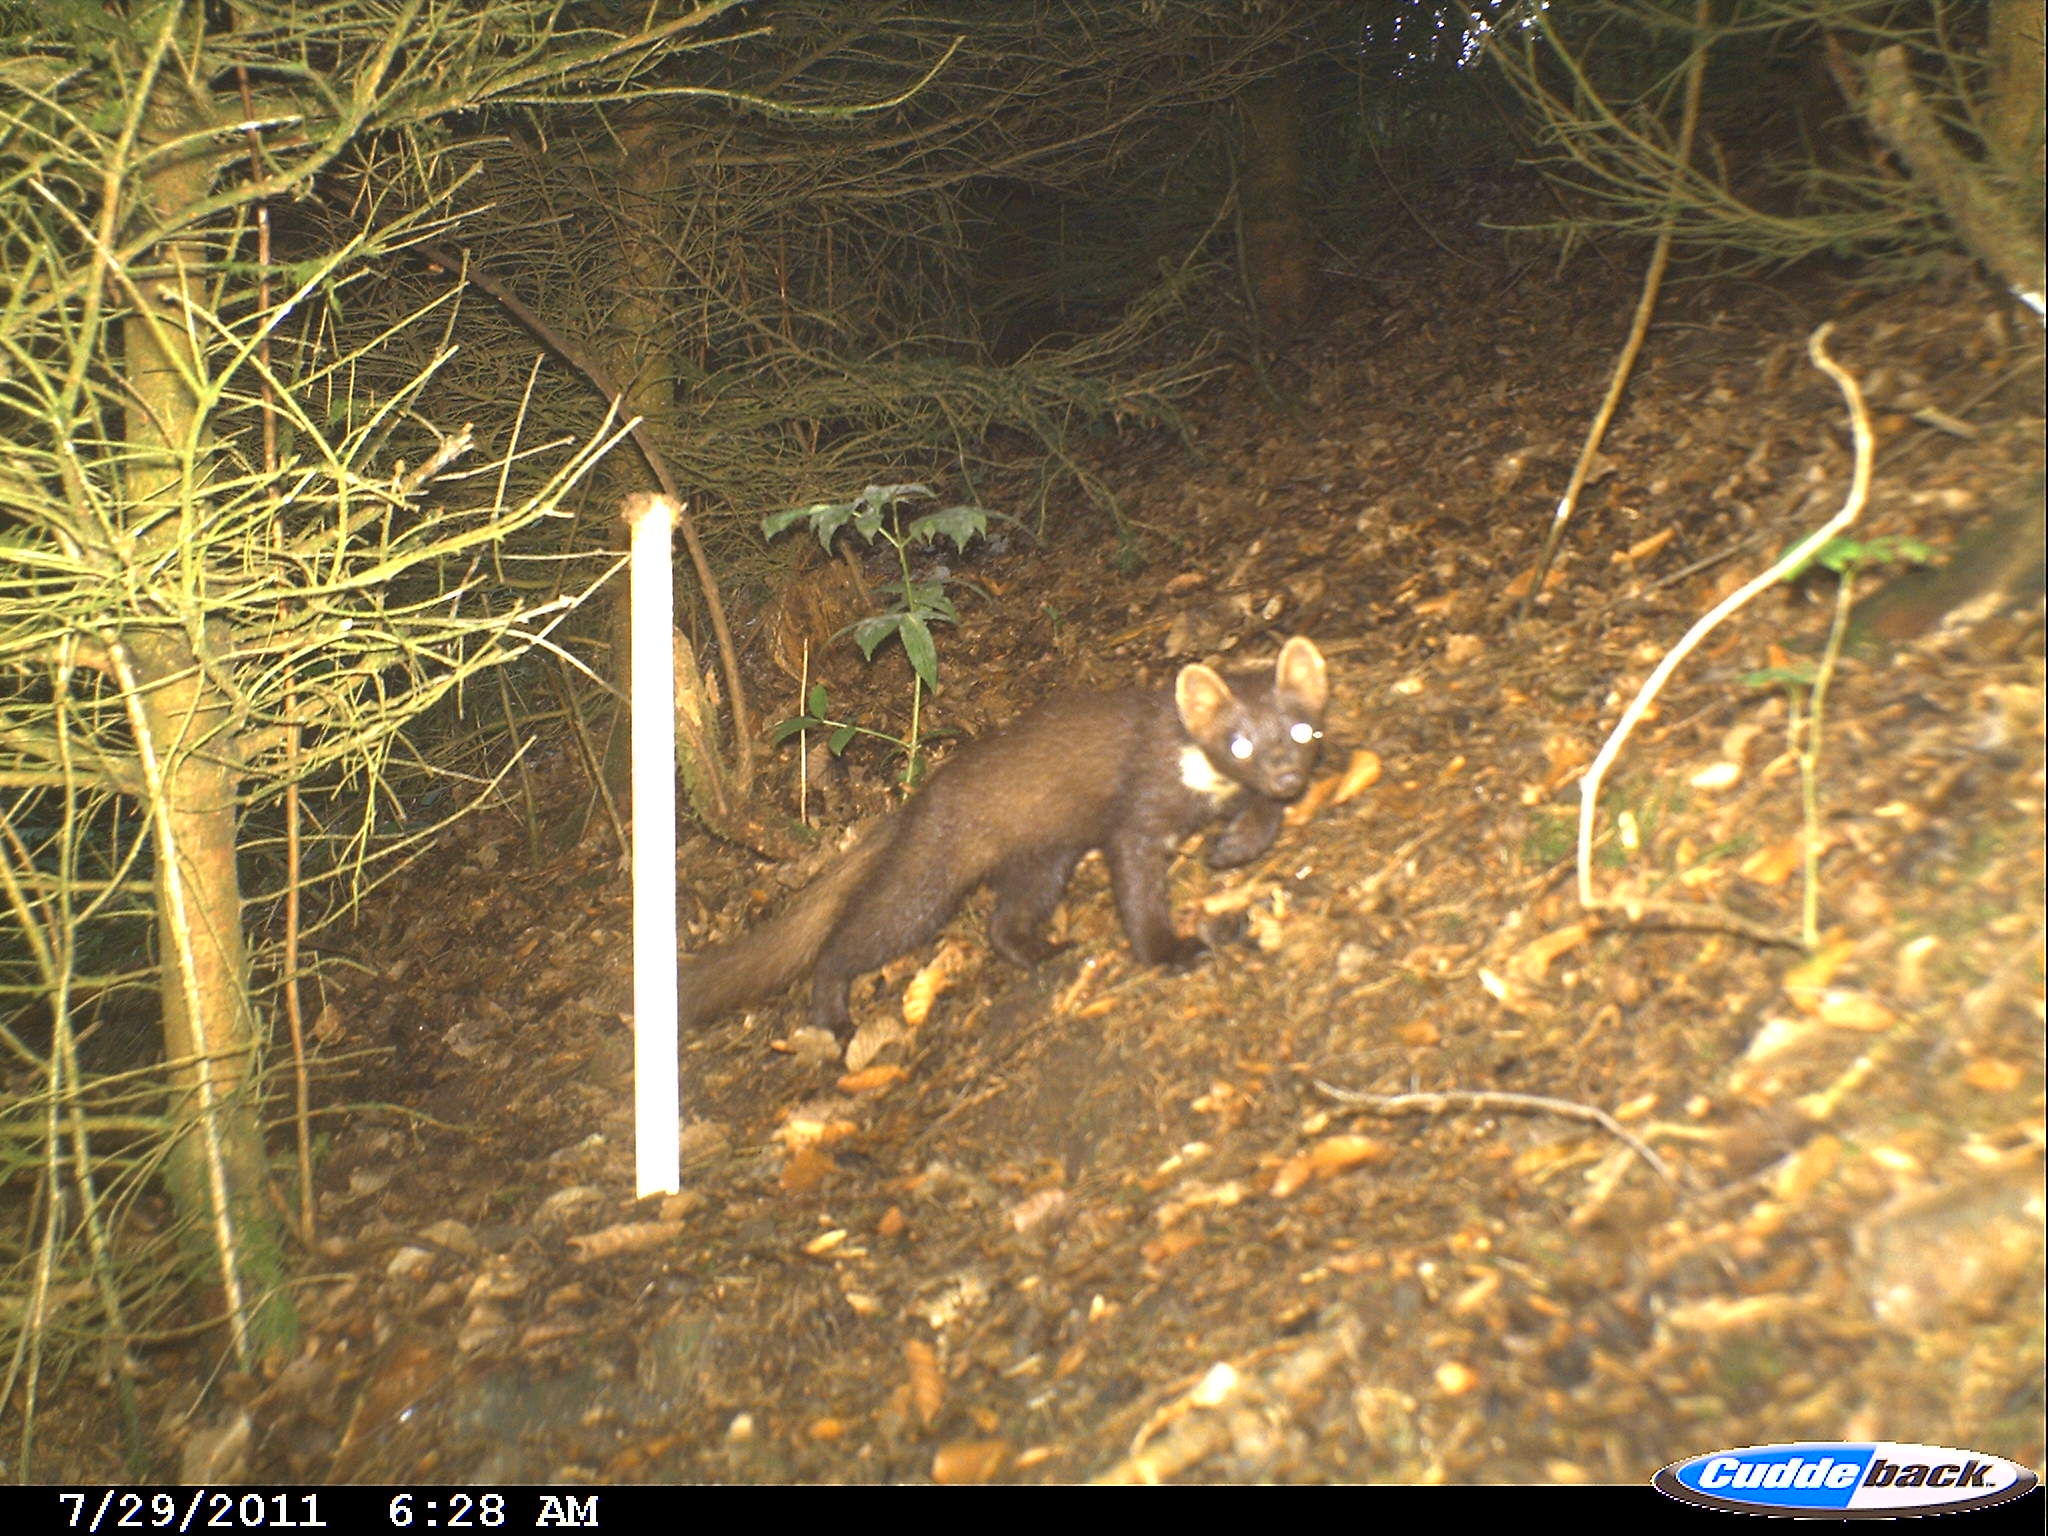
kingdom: Animalia
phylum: Chordata
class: Mammalia
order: Carnivora
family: Mustelidae
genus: Martes
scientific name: Martes martes
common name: European pine marten
